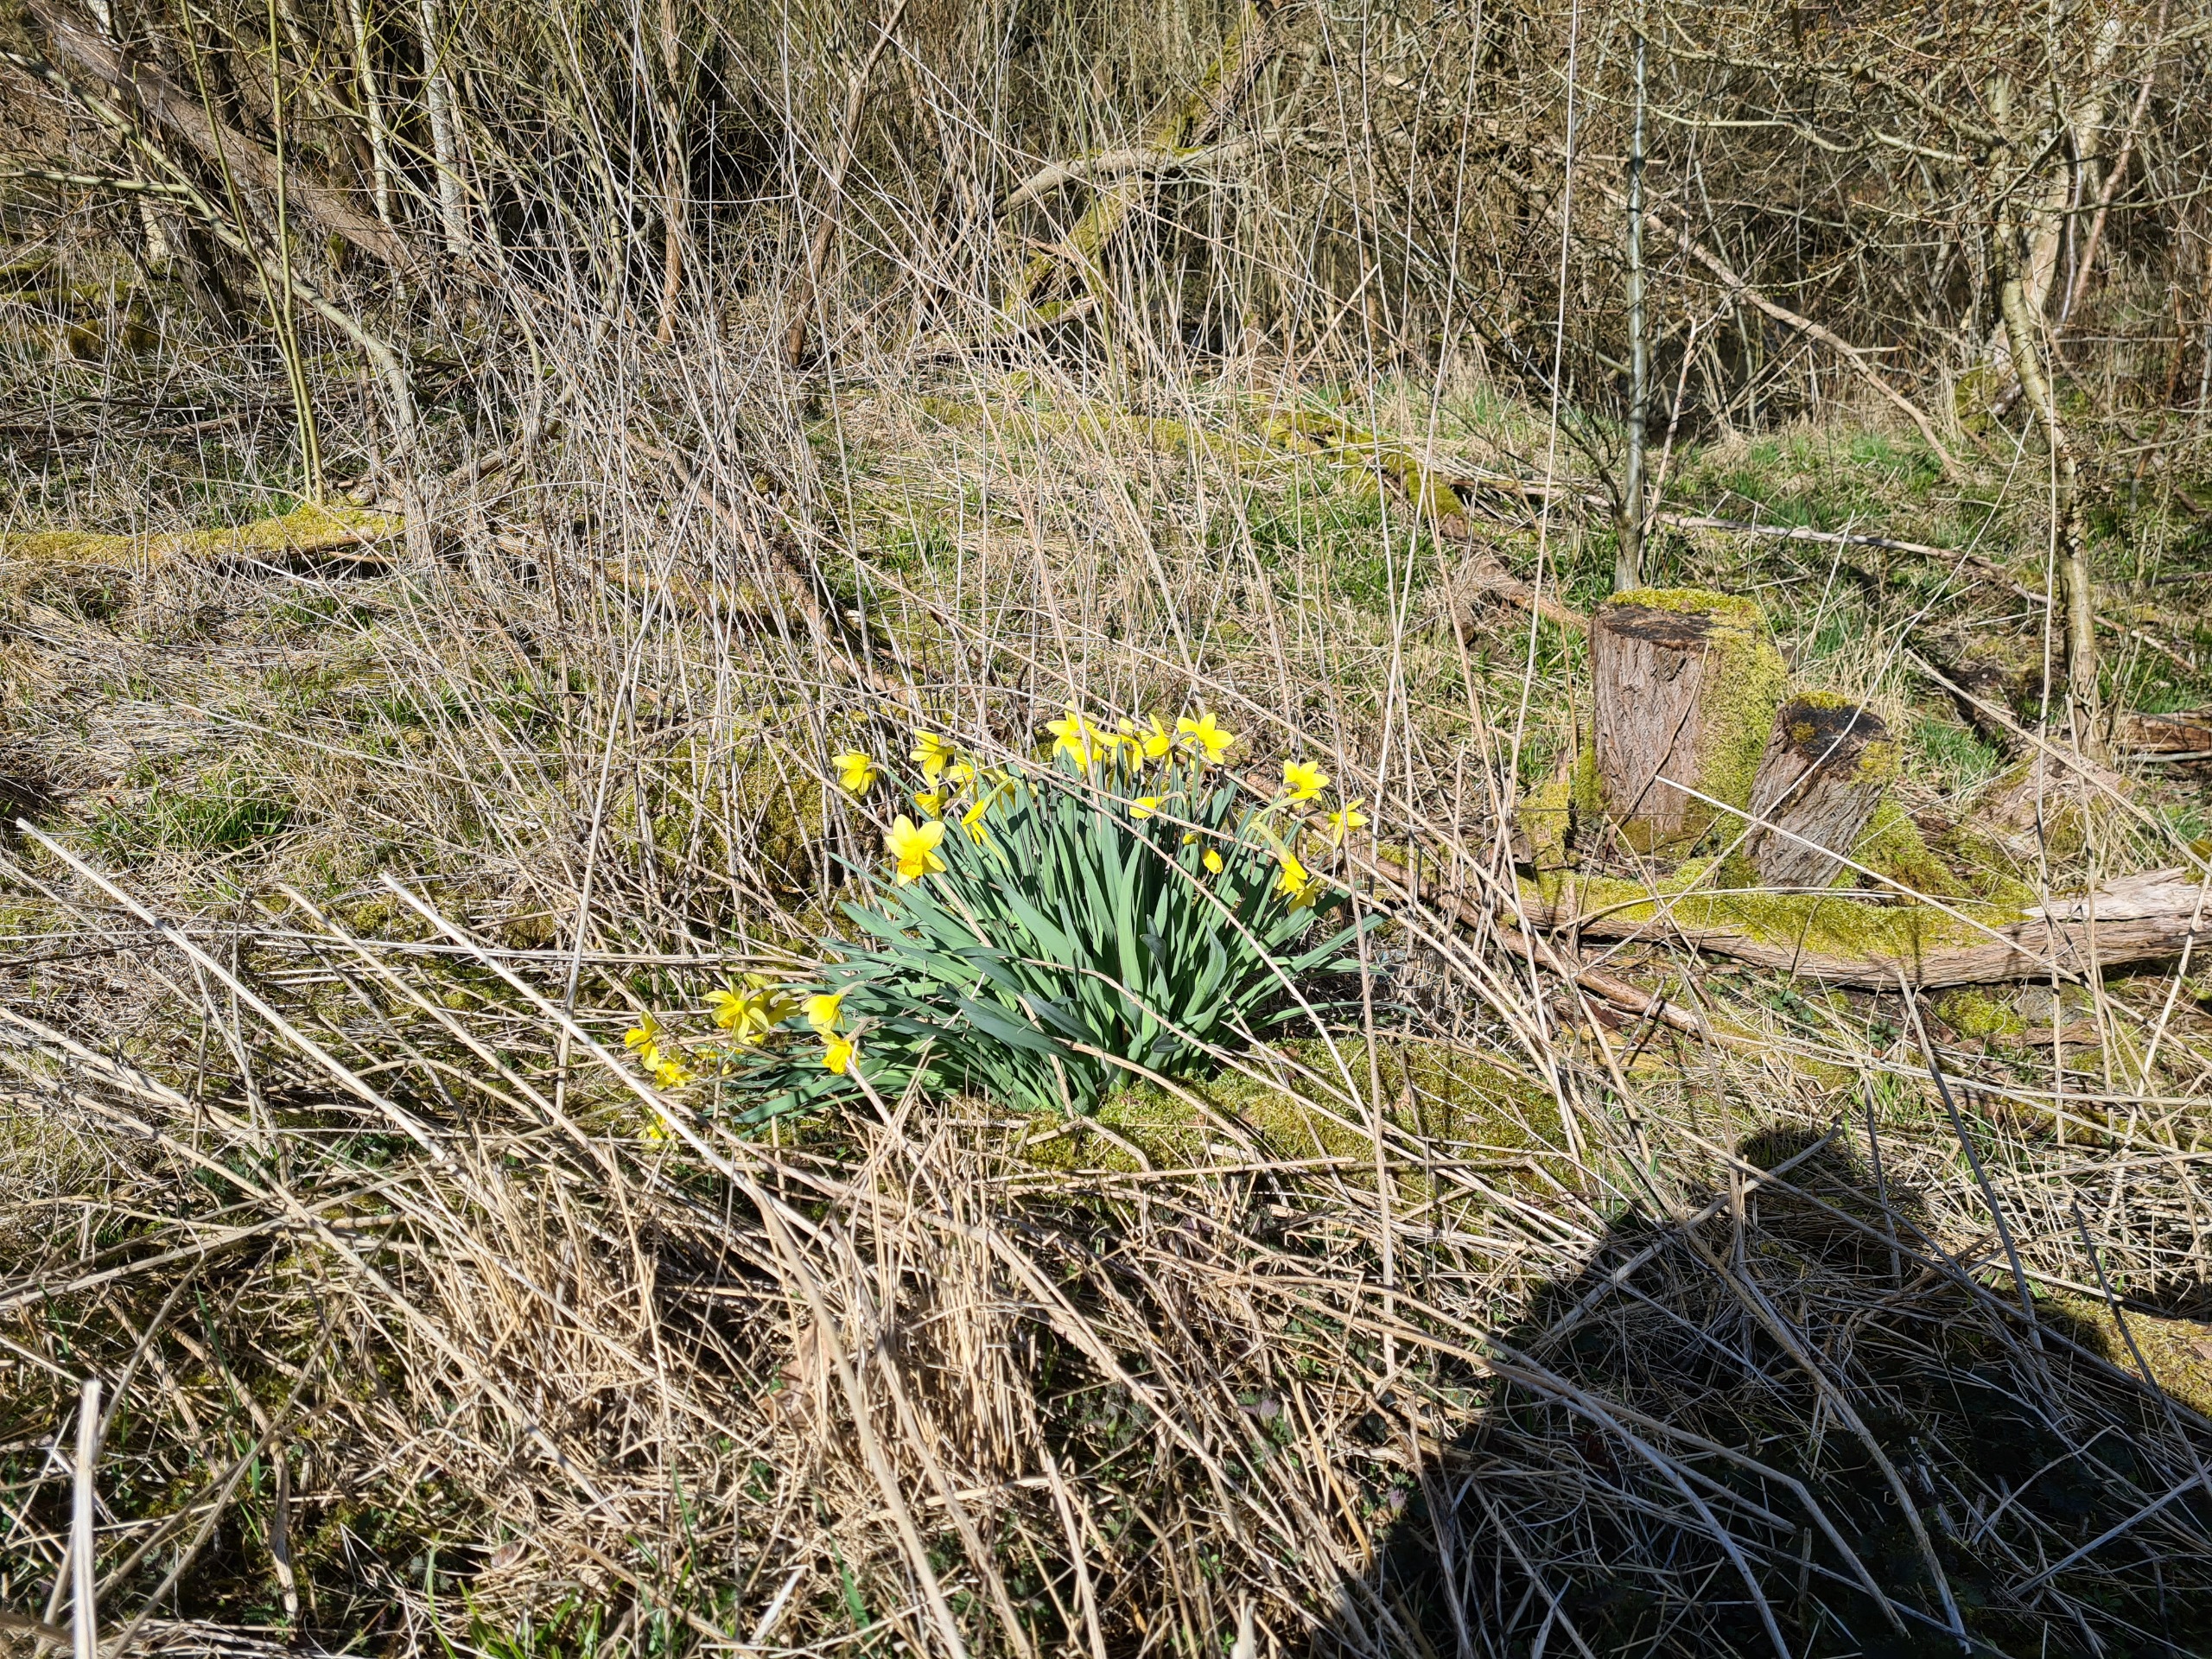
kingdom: Plantae
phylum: Tracheophyta
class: Liliopsida
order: Asparagales
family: Amaryllidaceae
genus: Narcissus
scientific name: Narcissus pseudonarcissus
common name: Påskelilje
